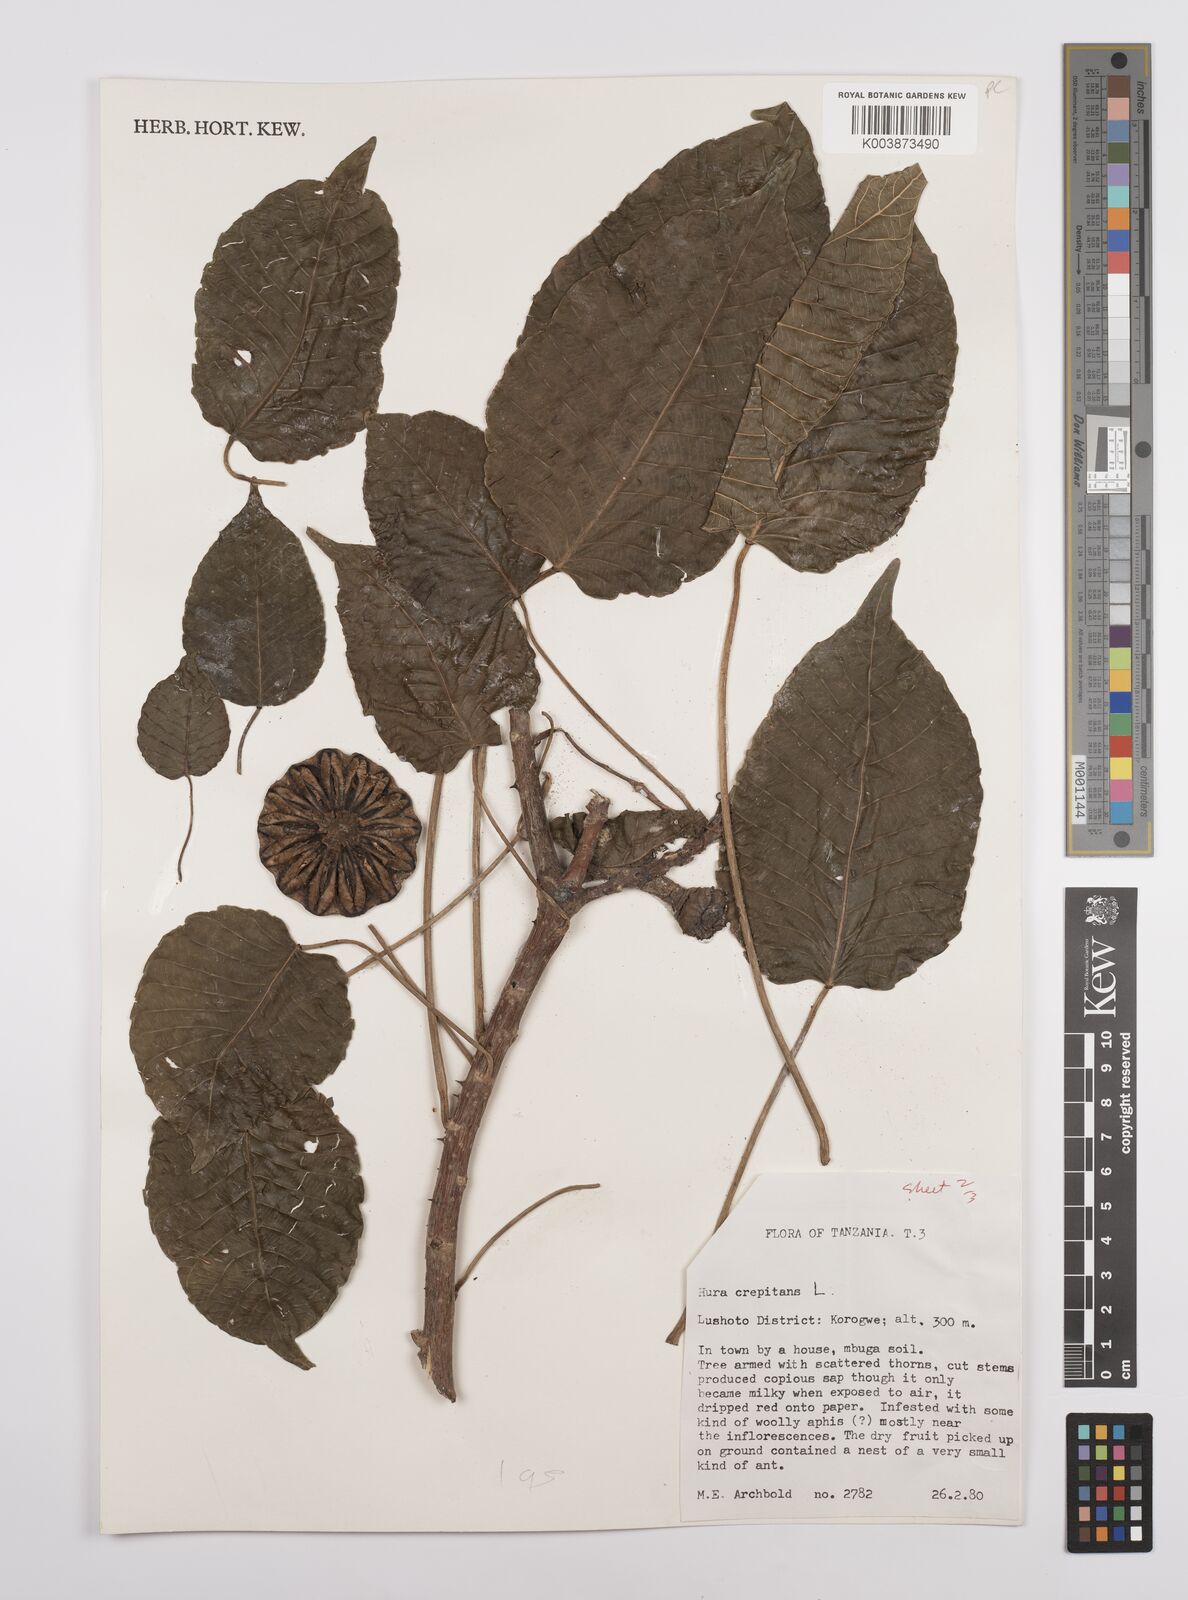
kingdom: Plantae
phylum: Tracheophyta
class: Magnoliopsida
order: Malpighiales
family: Euphorbiaceae
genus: Hura
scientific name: Hura crepitans
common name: Sandboxtree
